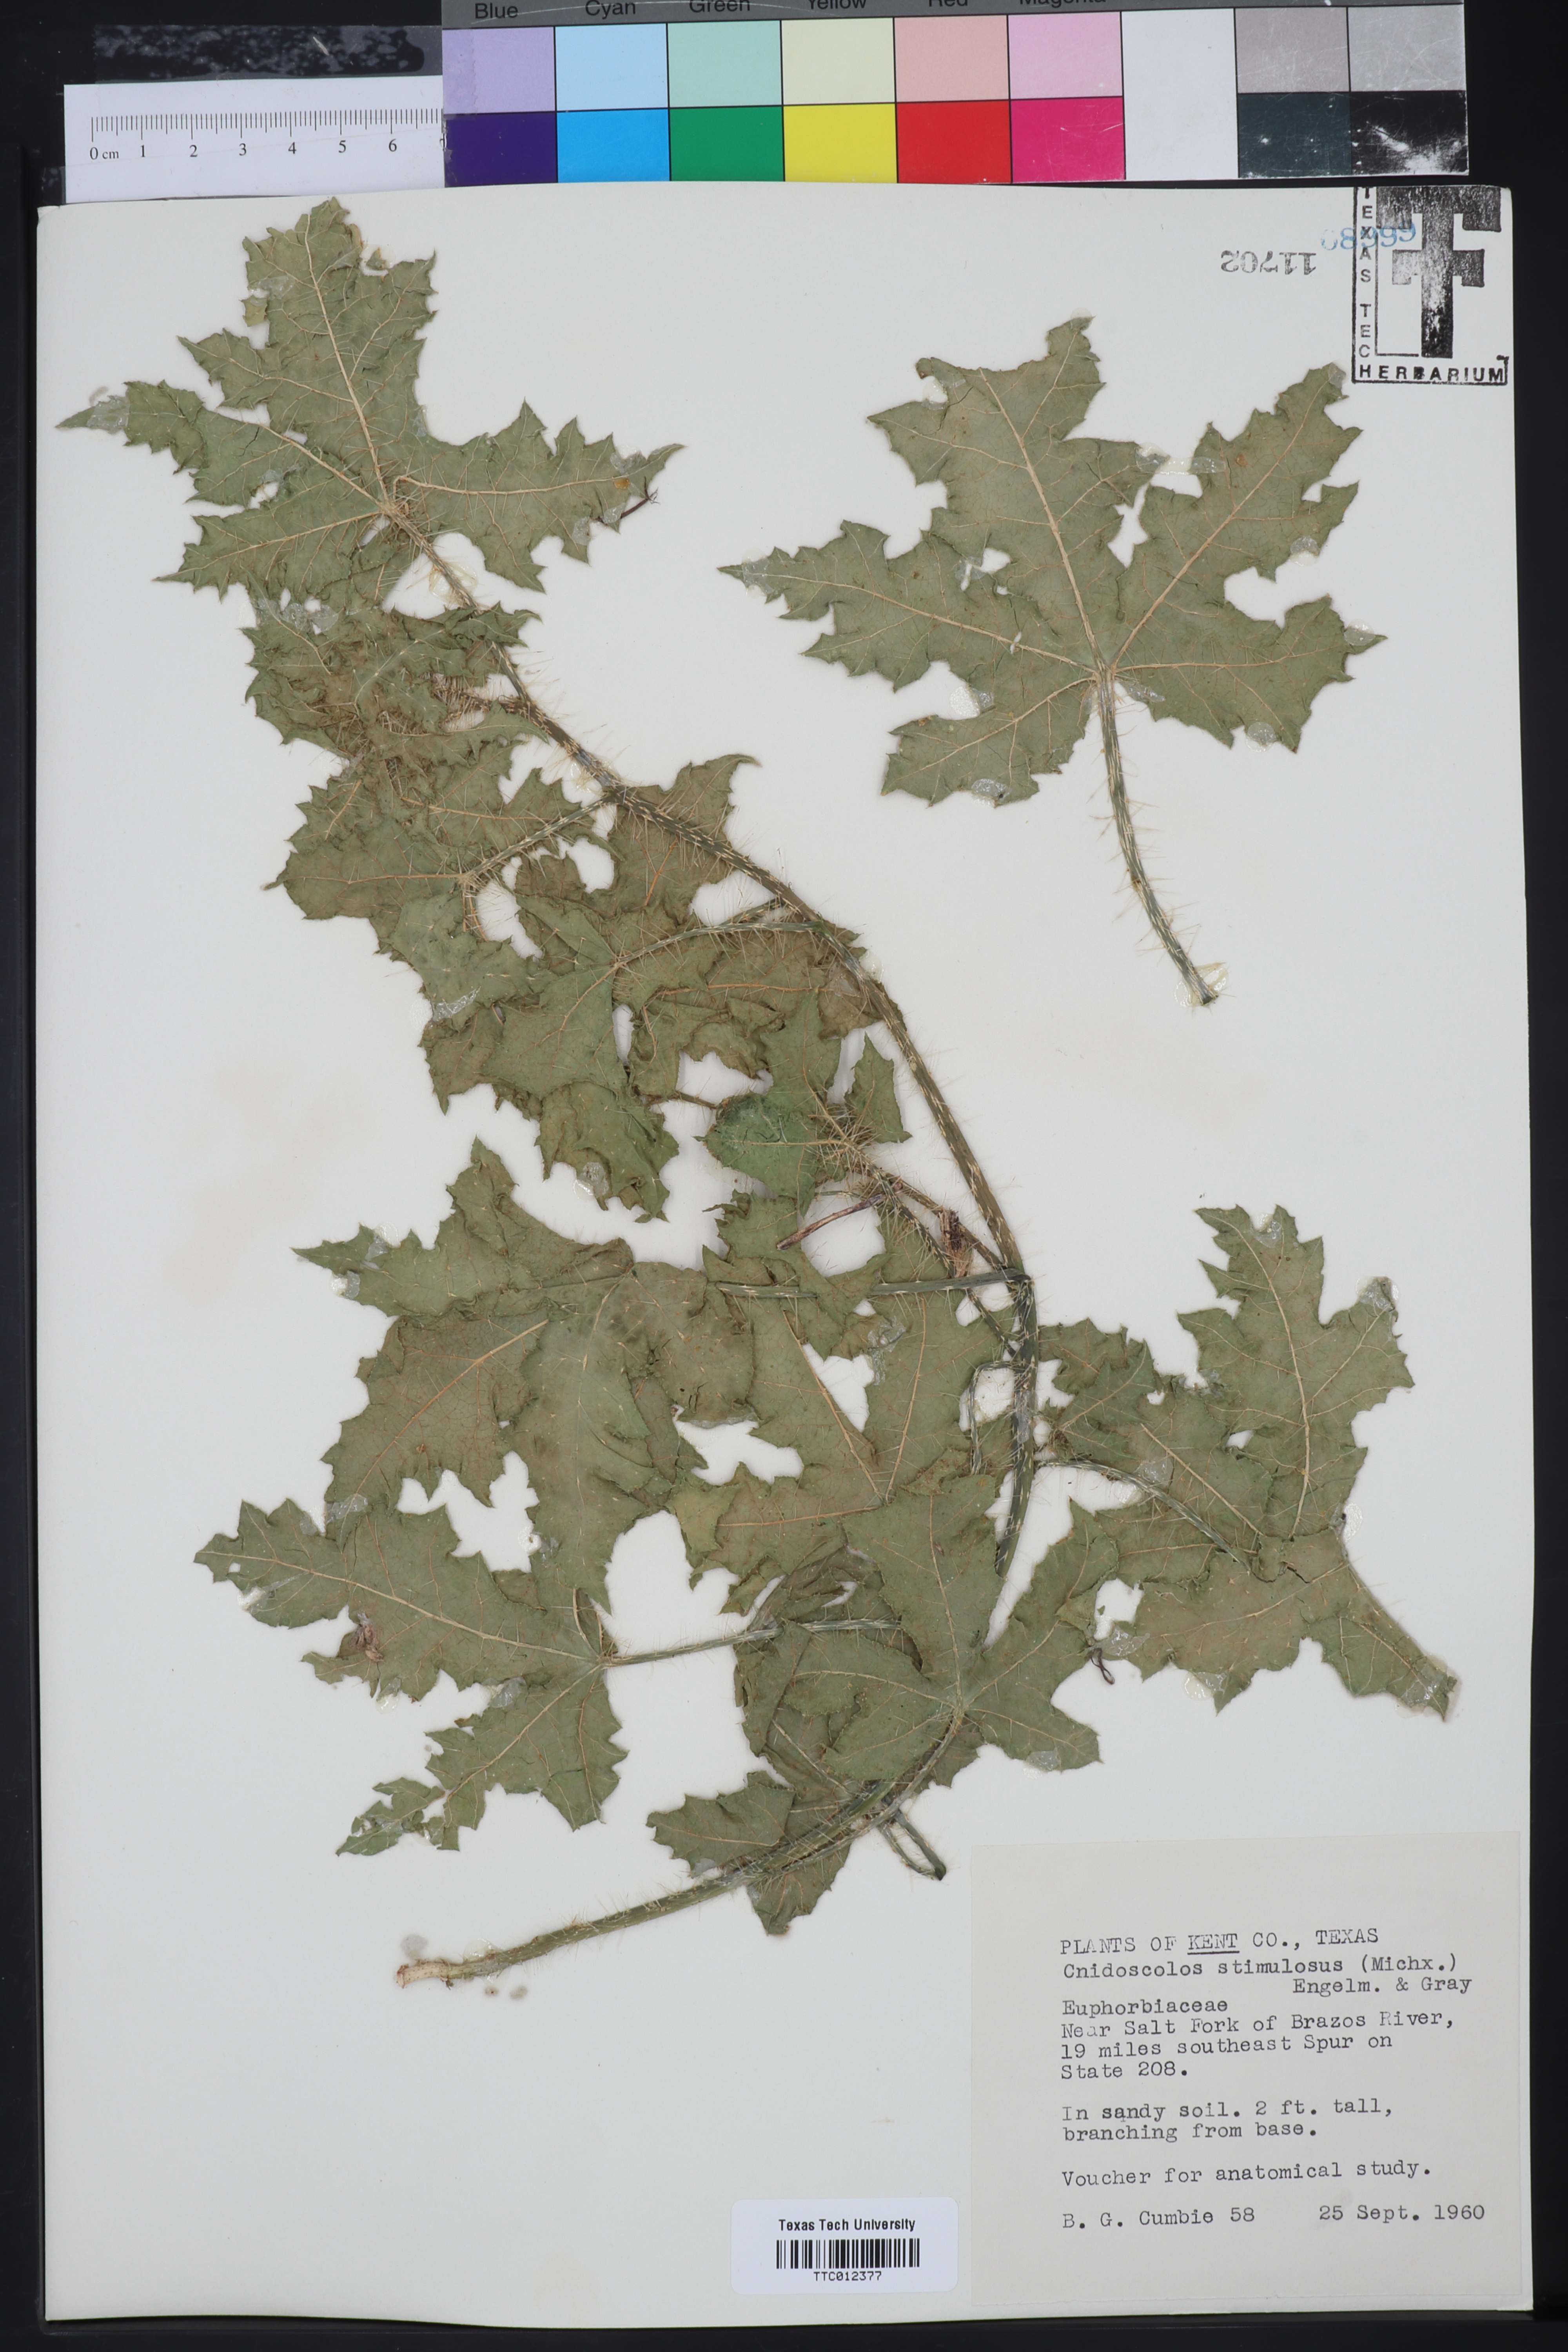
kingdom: Plantae
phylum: Tracheophyta
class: Magnoliopsida
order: Malpighiales
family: Euphorbiaceae
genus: Cnidoscolus
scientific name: Cnidoscolus stimulosus
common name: Bull-nettle
